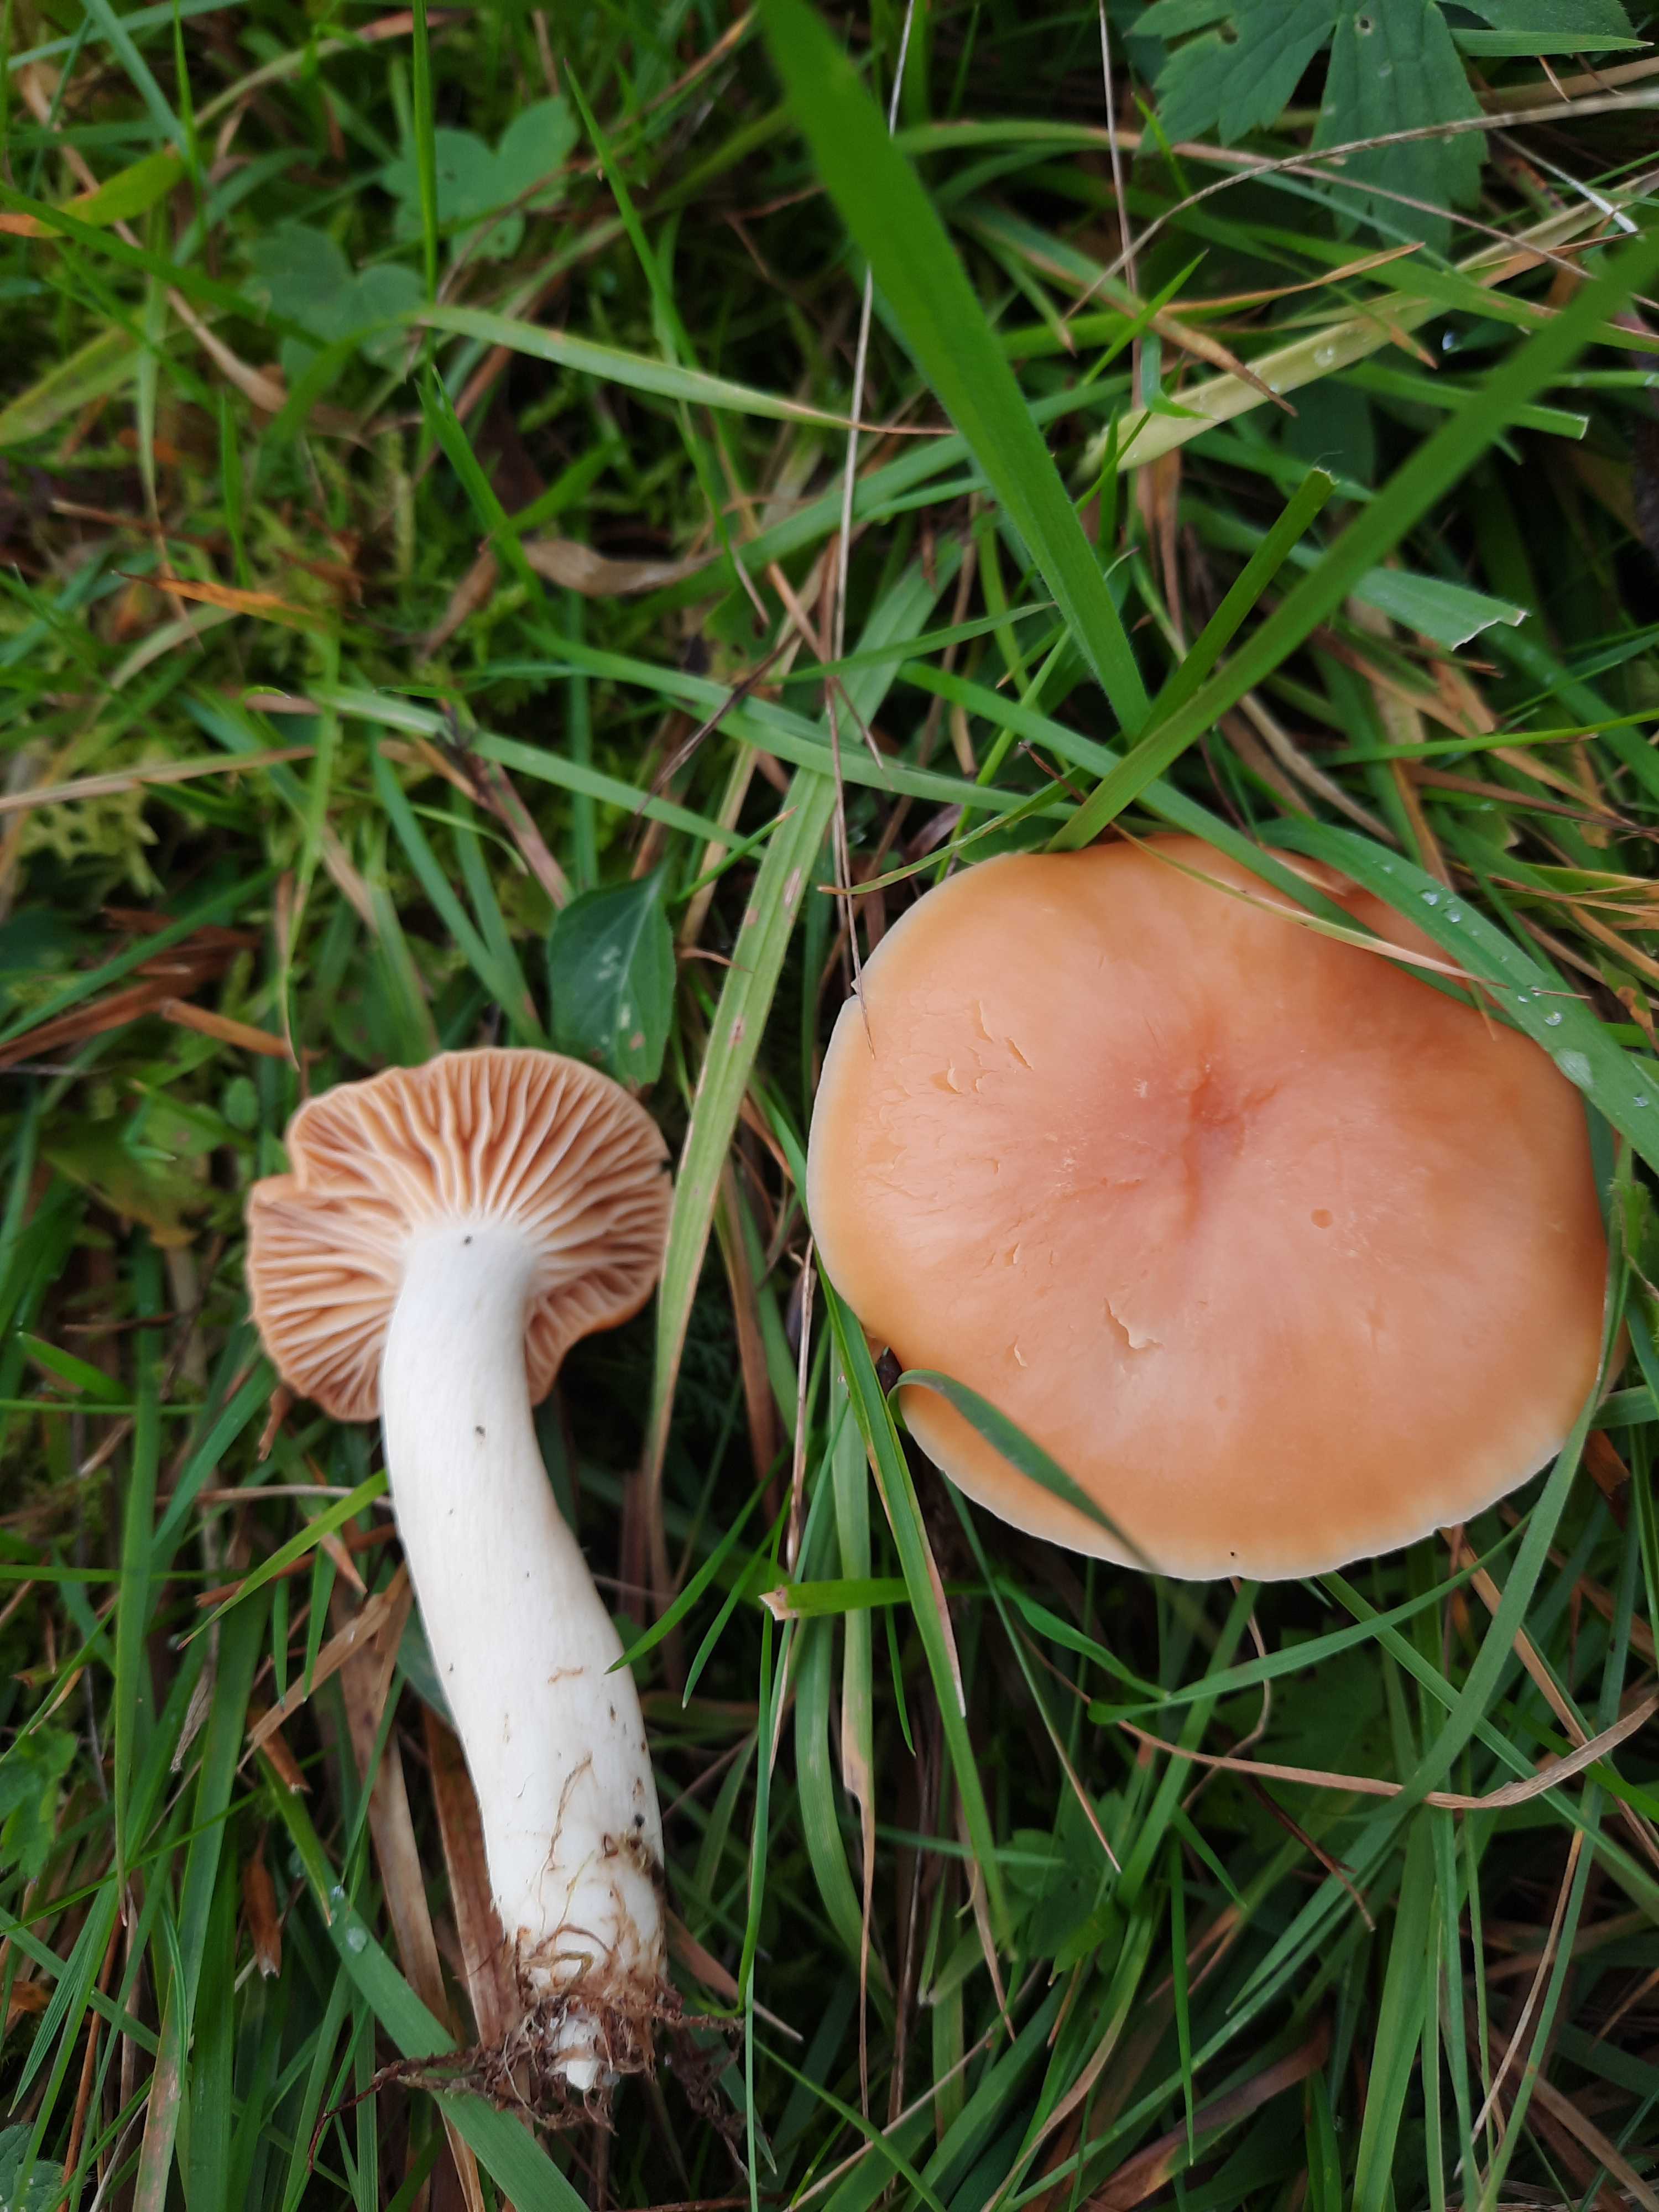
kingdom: Fungi
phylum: Basidiomycota
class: Agaricomycetes
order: Agaricales
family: Hygrophoraceae
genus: Cuphophyllus
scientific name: Cuphophyllus pratensis
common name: eng-vokshat
